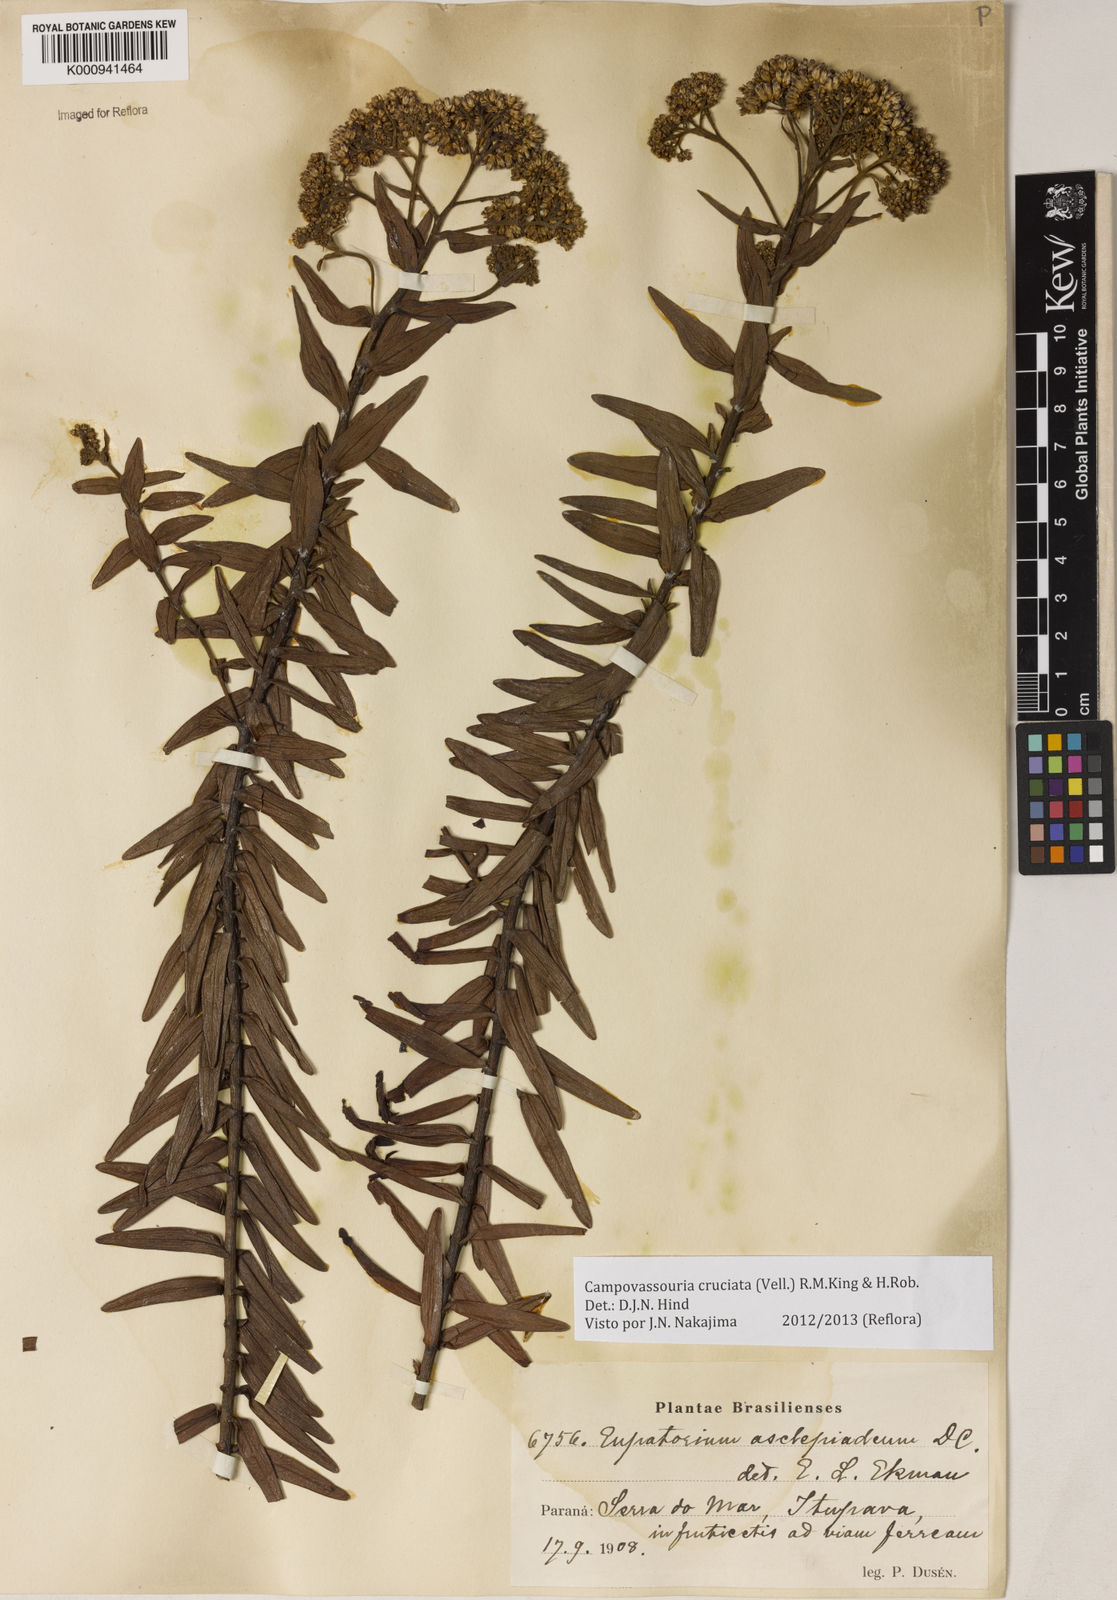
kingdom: Plantae
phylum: Tracheophyta
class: Magnoliopsida
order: Asterales
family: Asteraceae
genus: Campovassouria
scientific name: Campovassouria cruciata
